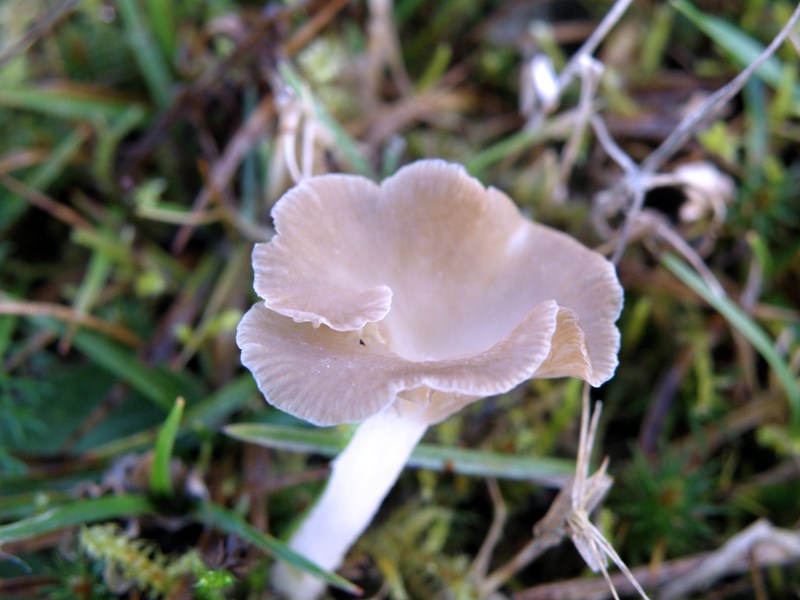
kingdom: Fungi
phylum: Basidiomycota
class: Agaricomycetes
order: Agaricales
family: Hygrophoraceae
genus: Arrhenia
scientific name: Arrhenia peltigerina
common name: skjoldlav-fontænehat
